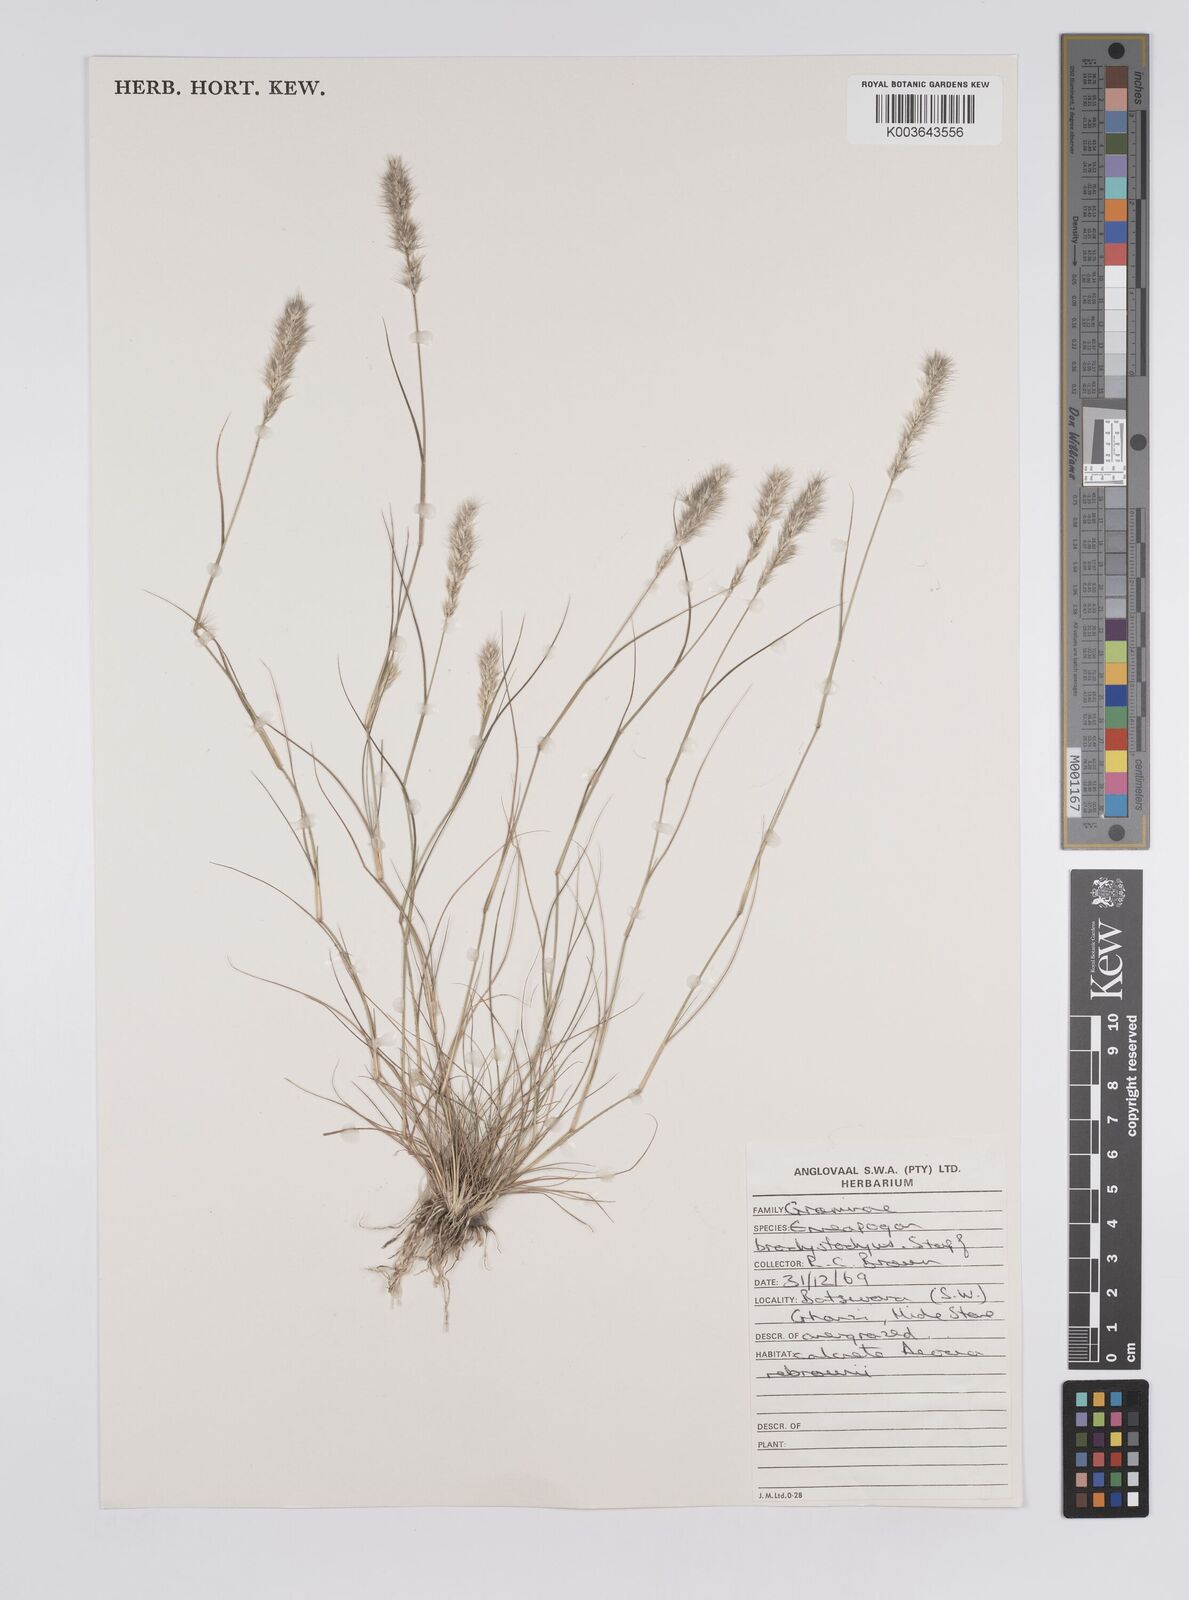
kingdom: Plantae
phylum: Tracheophyta
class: Liliopsida
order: Poales
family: Poaceae
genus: Enneapogon
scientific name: Enneapogon desvauxii
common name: Feather pappus grass
